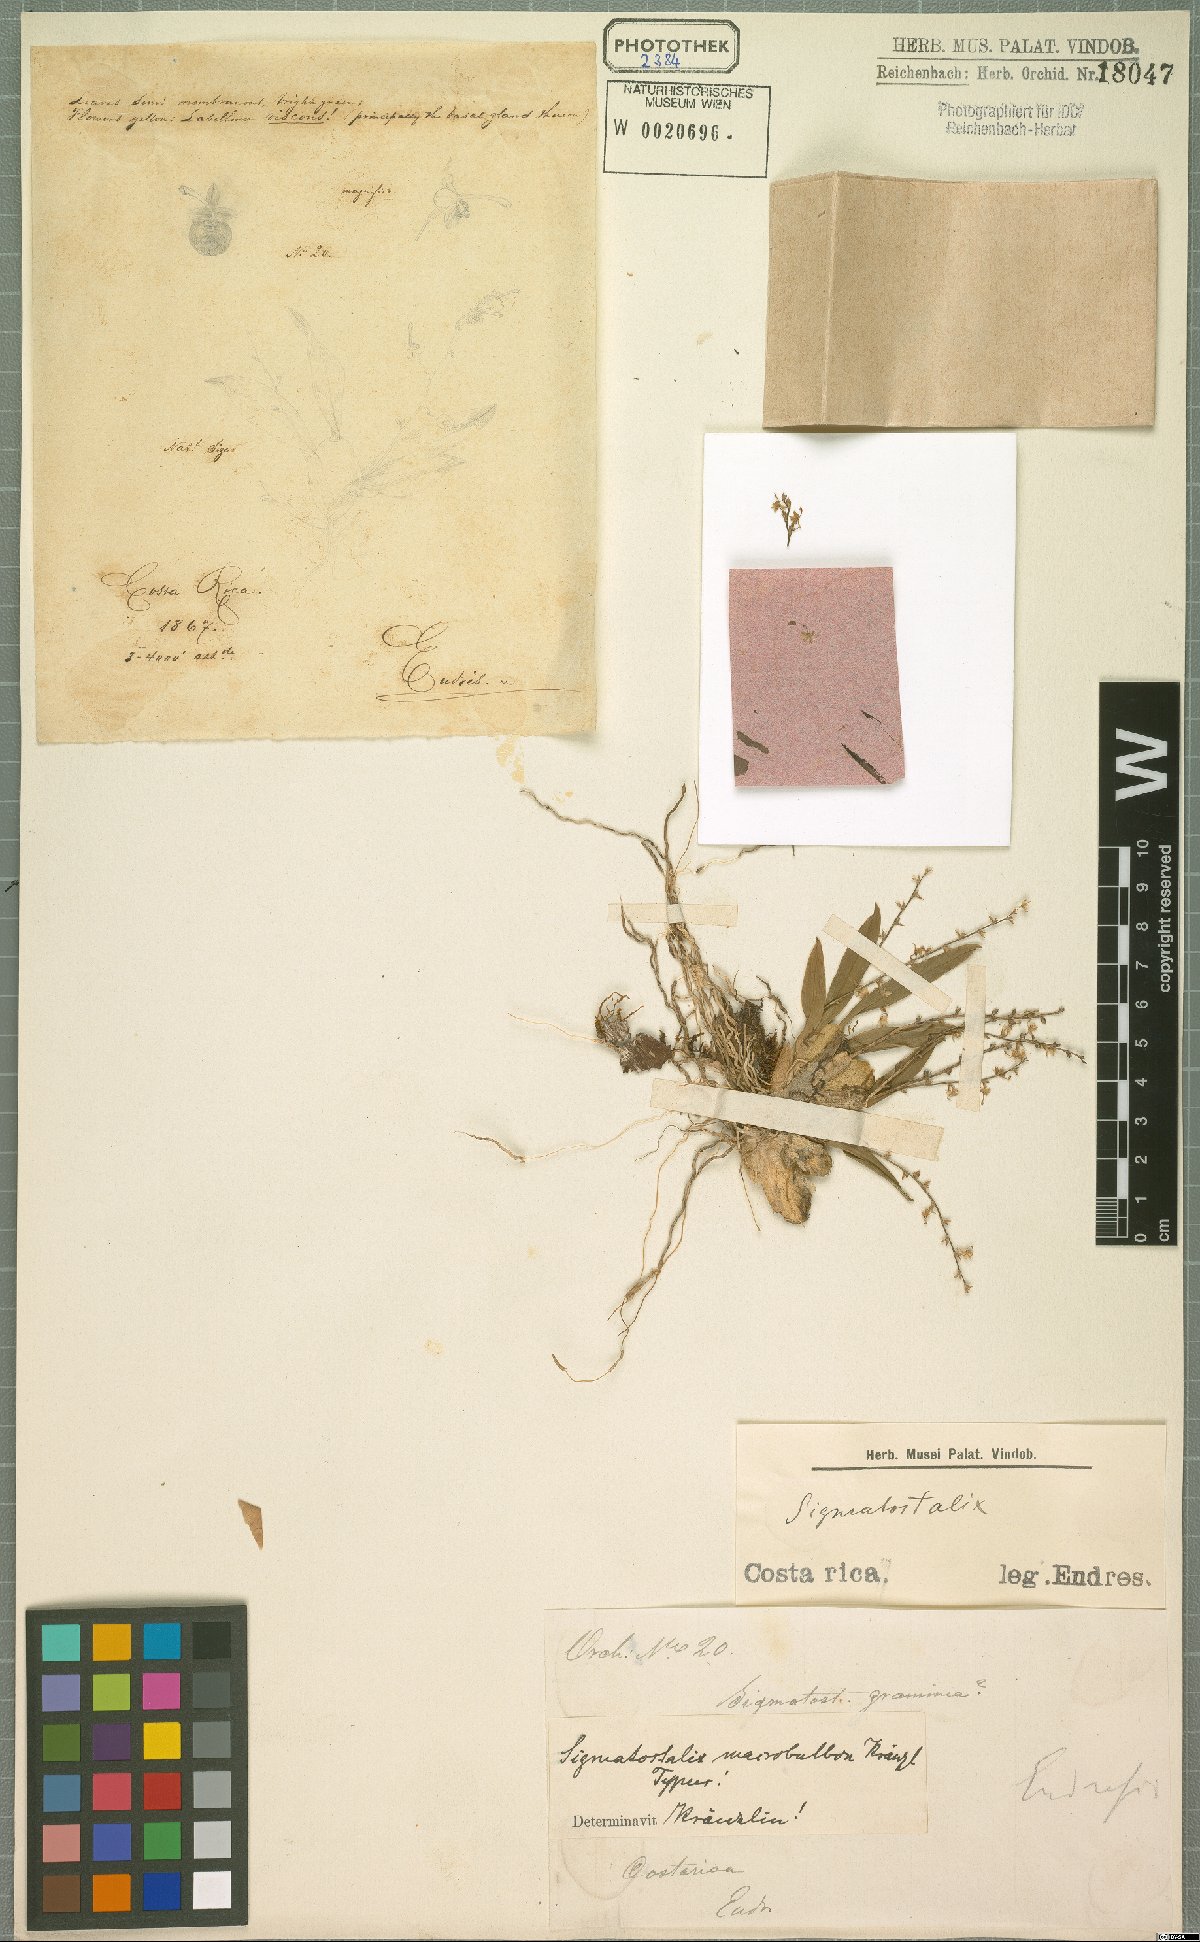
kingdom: Plantae
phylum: Tracheophyta
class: Liliopsida
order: Asparagales
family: Orchidaceae
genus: Oncidium
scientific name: Oncidium macrobulbon
